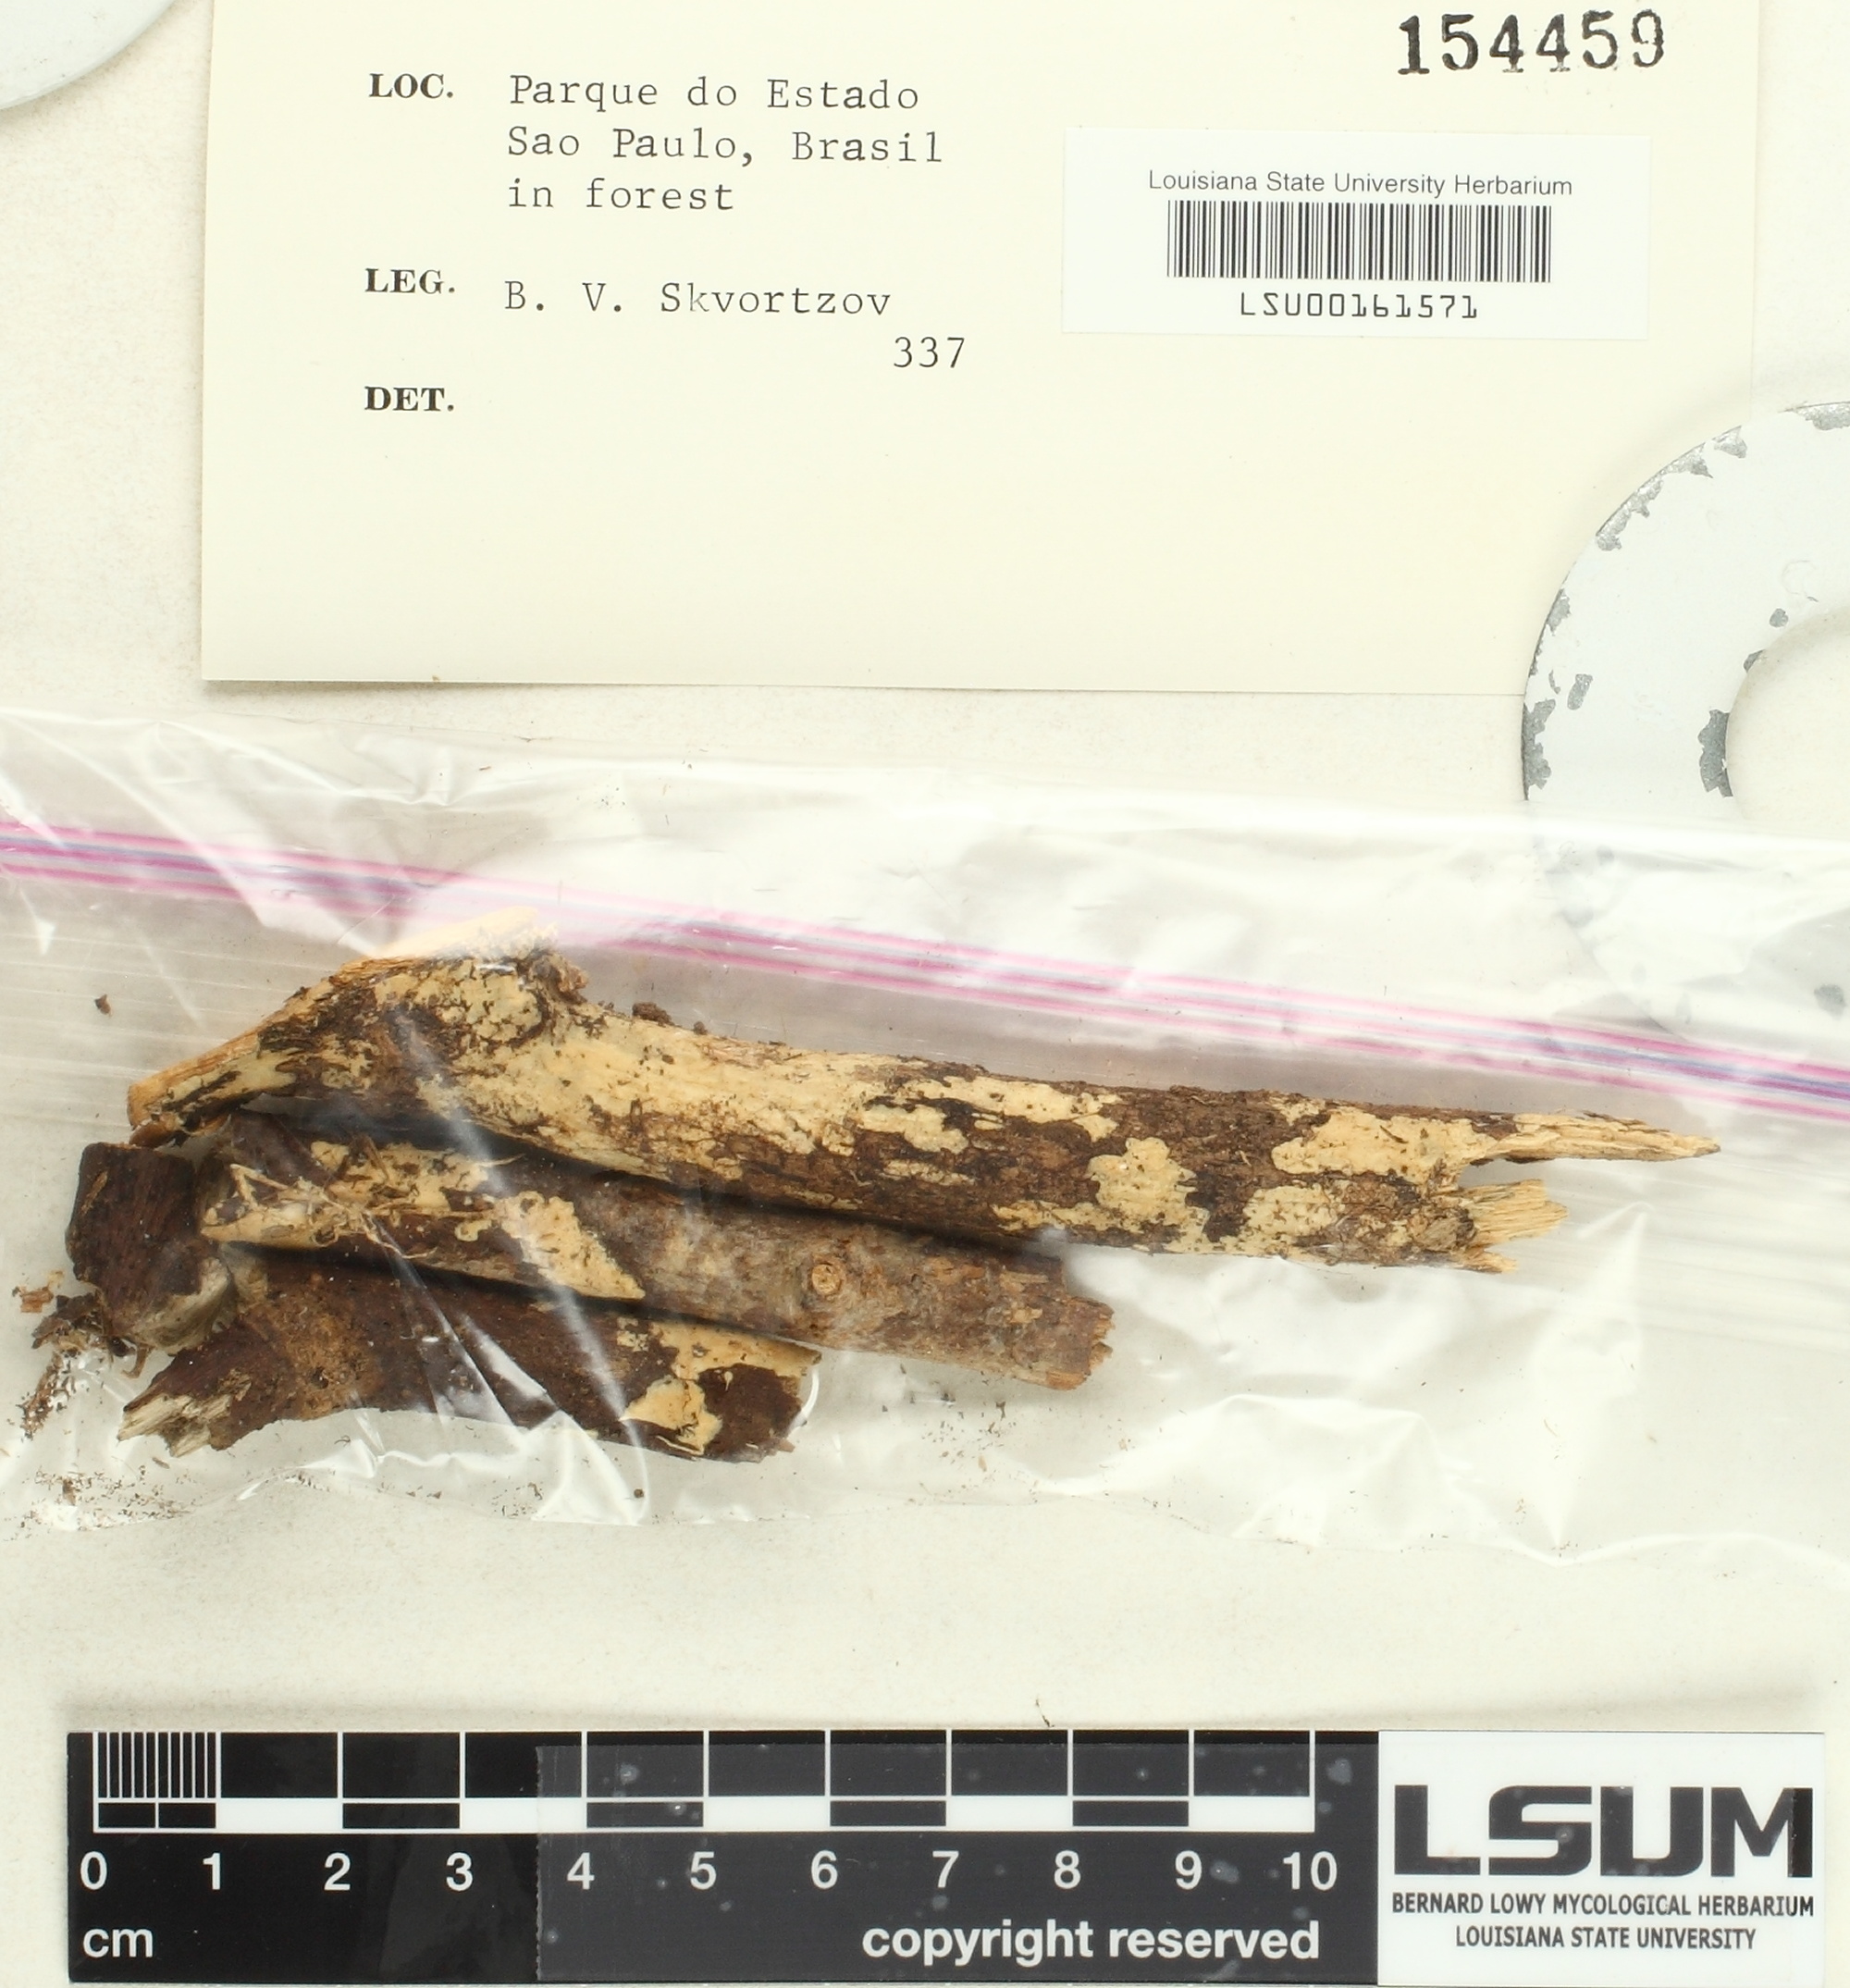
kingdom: Fungi
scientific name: Fungi
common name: Fungi
